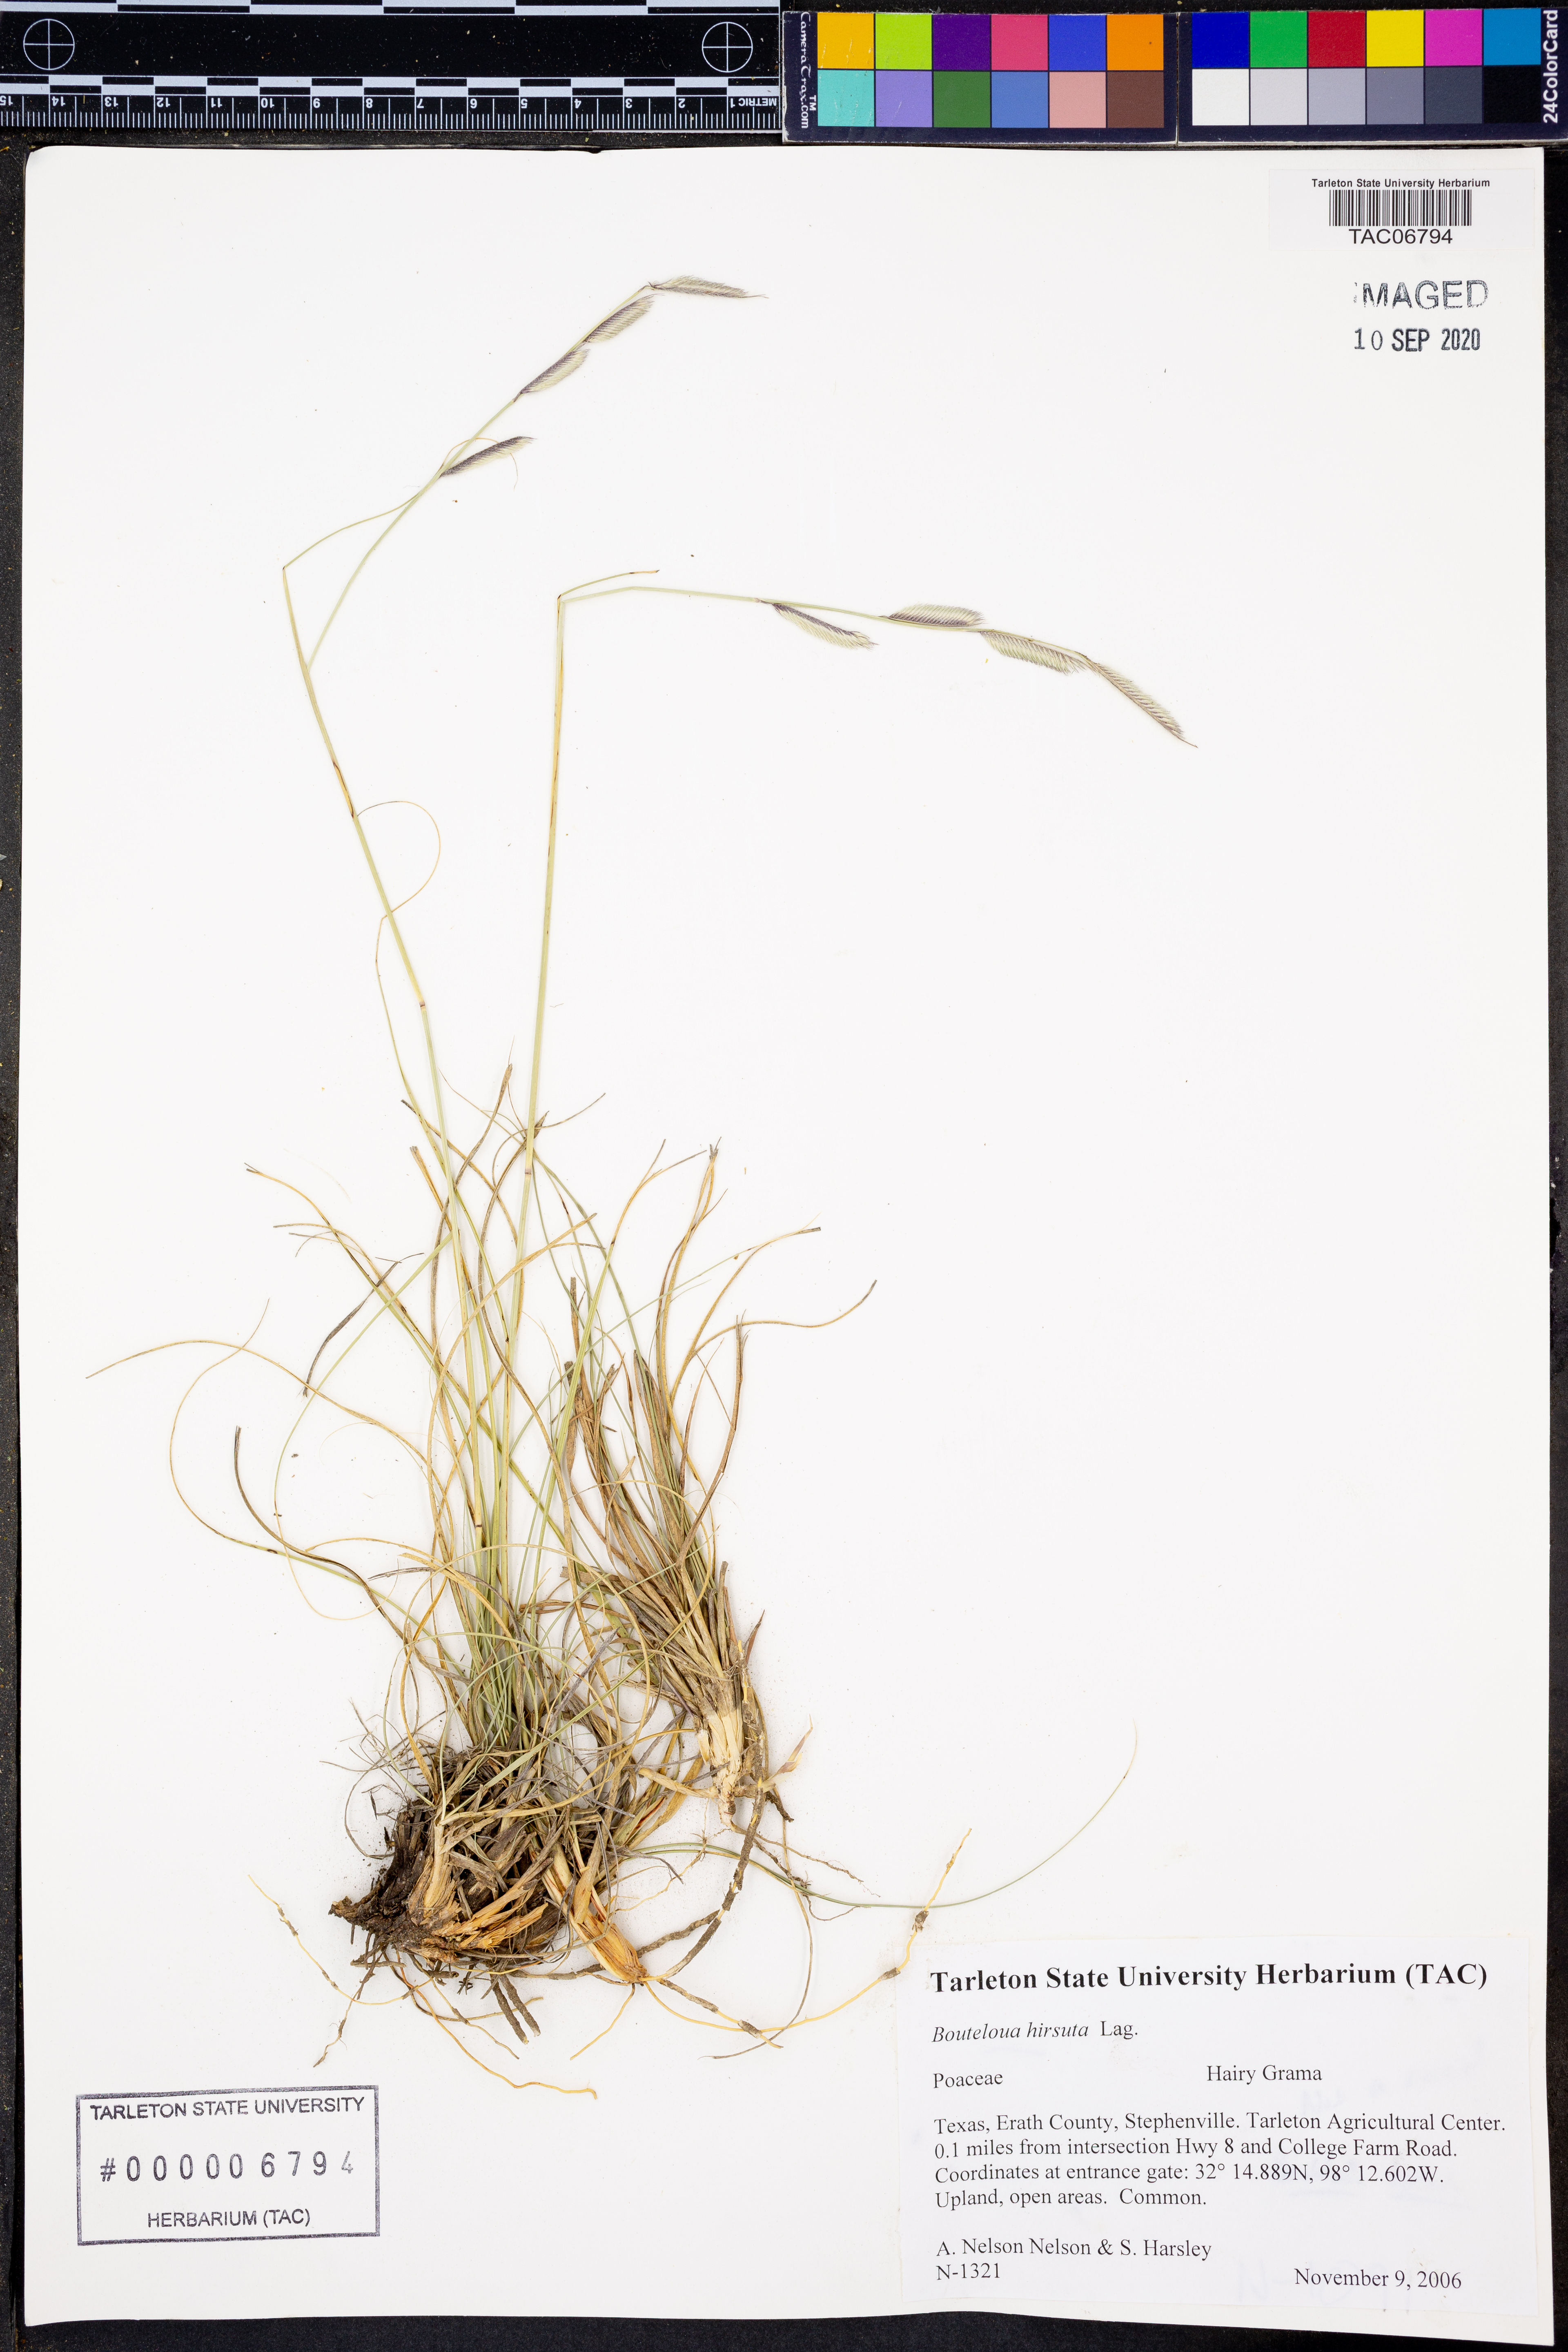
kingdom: Plantae
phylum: Tracheophyta
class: Liliopsida
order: Poales
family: Poaceae
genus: Bouteloua
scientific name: Bouteloua hirsuta
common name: Hairy grama
